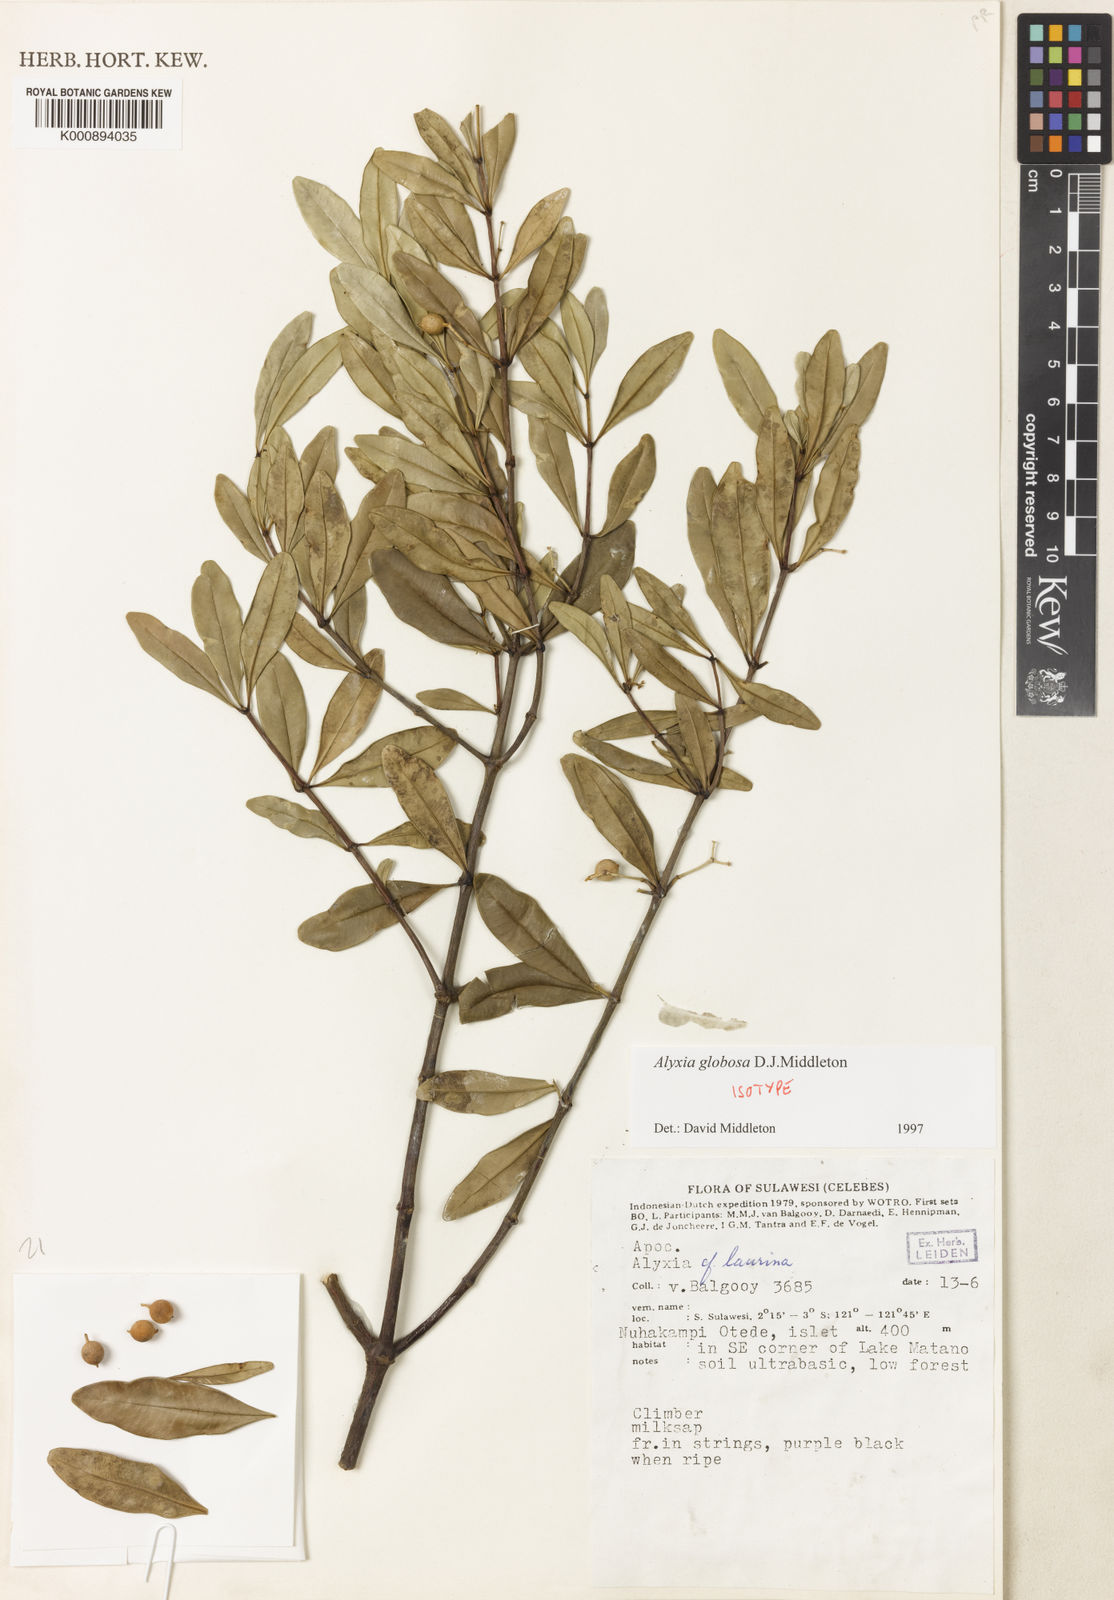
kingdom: Plantae
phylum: Tracheophyta
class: Magnoliopsida
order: Gentianales
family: Apocynaceae
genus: Alyxia
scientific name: Alyxia globosa
